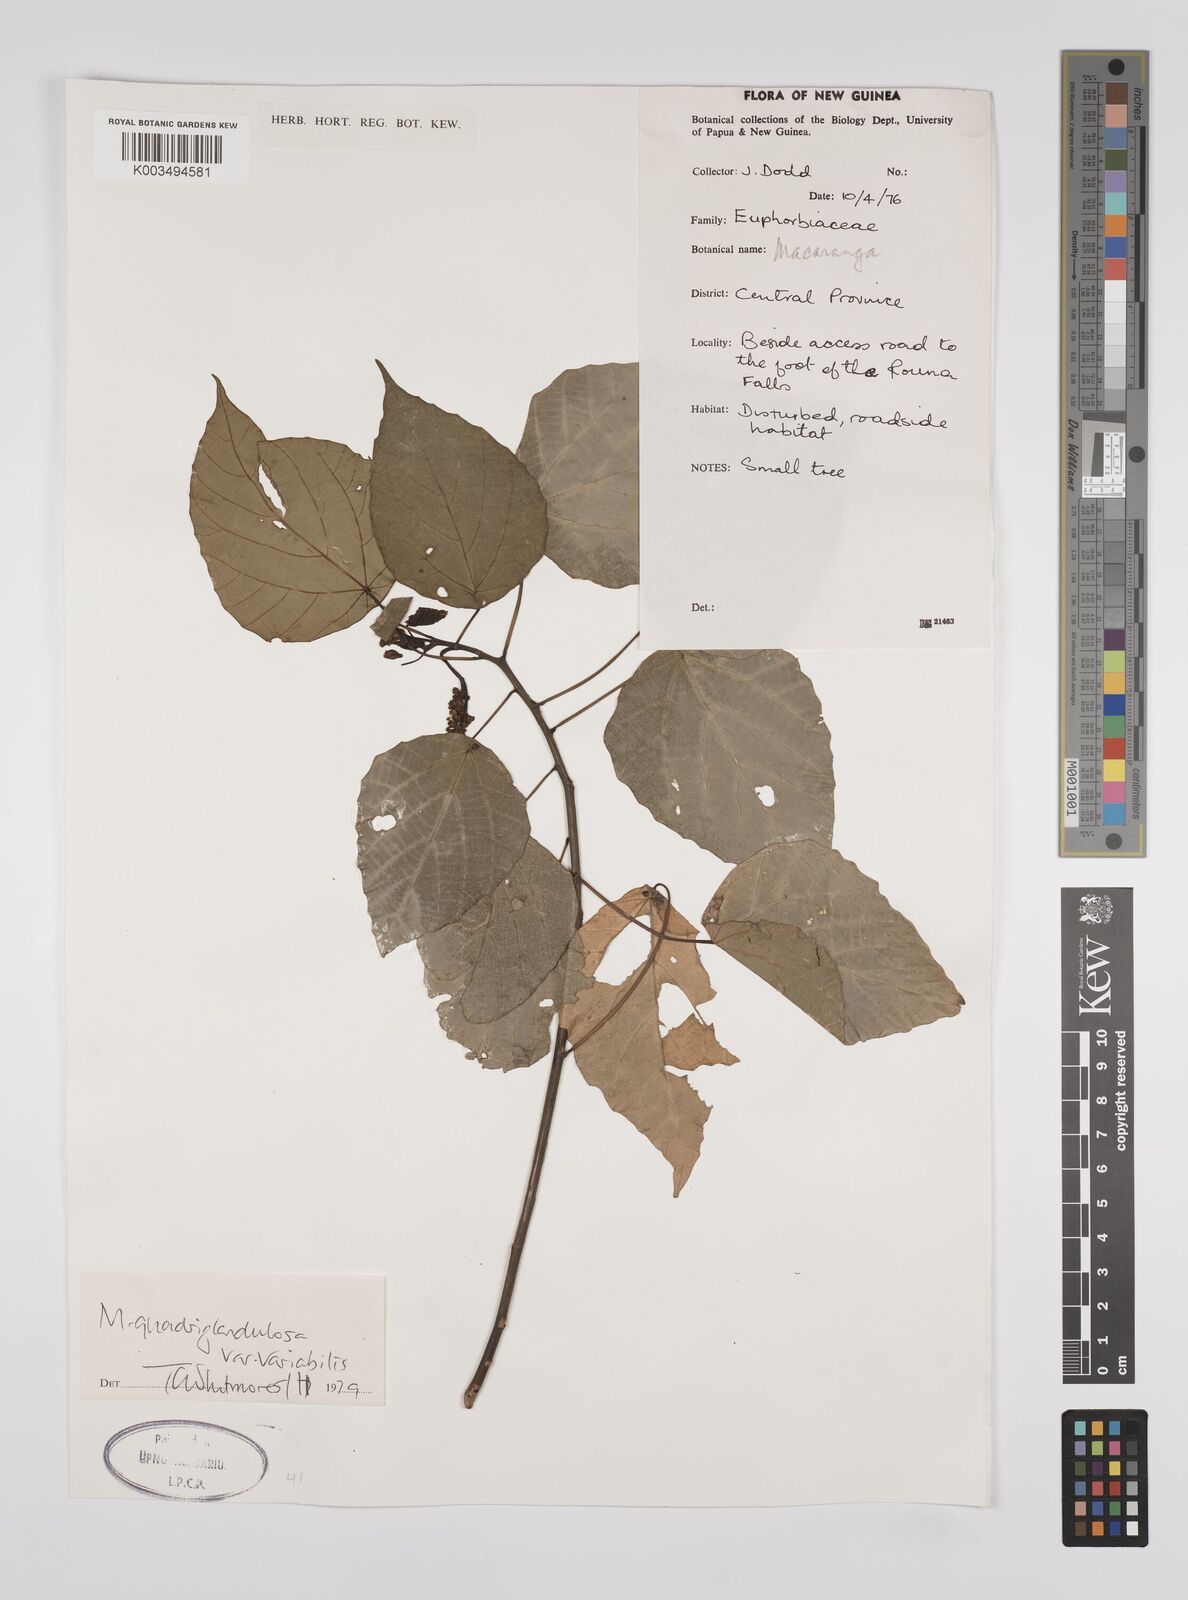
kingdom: Plantae
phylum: Tracheophyta
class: Magnoliopsida
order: Malpighiales
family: Euphorbiaceae
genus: Macaranga
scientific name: Macaranga quadriglandulosa
